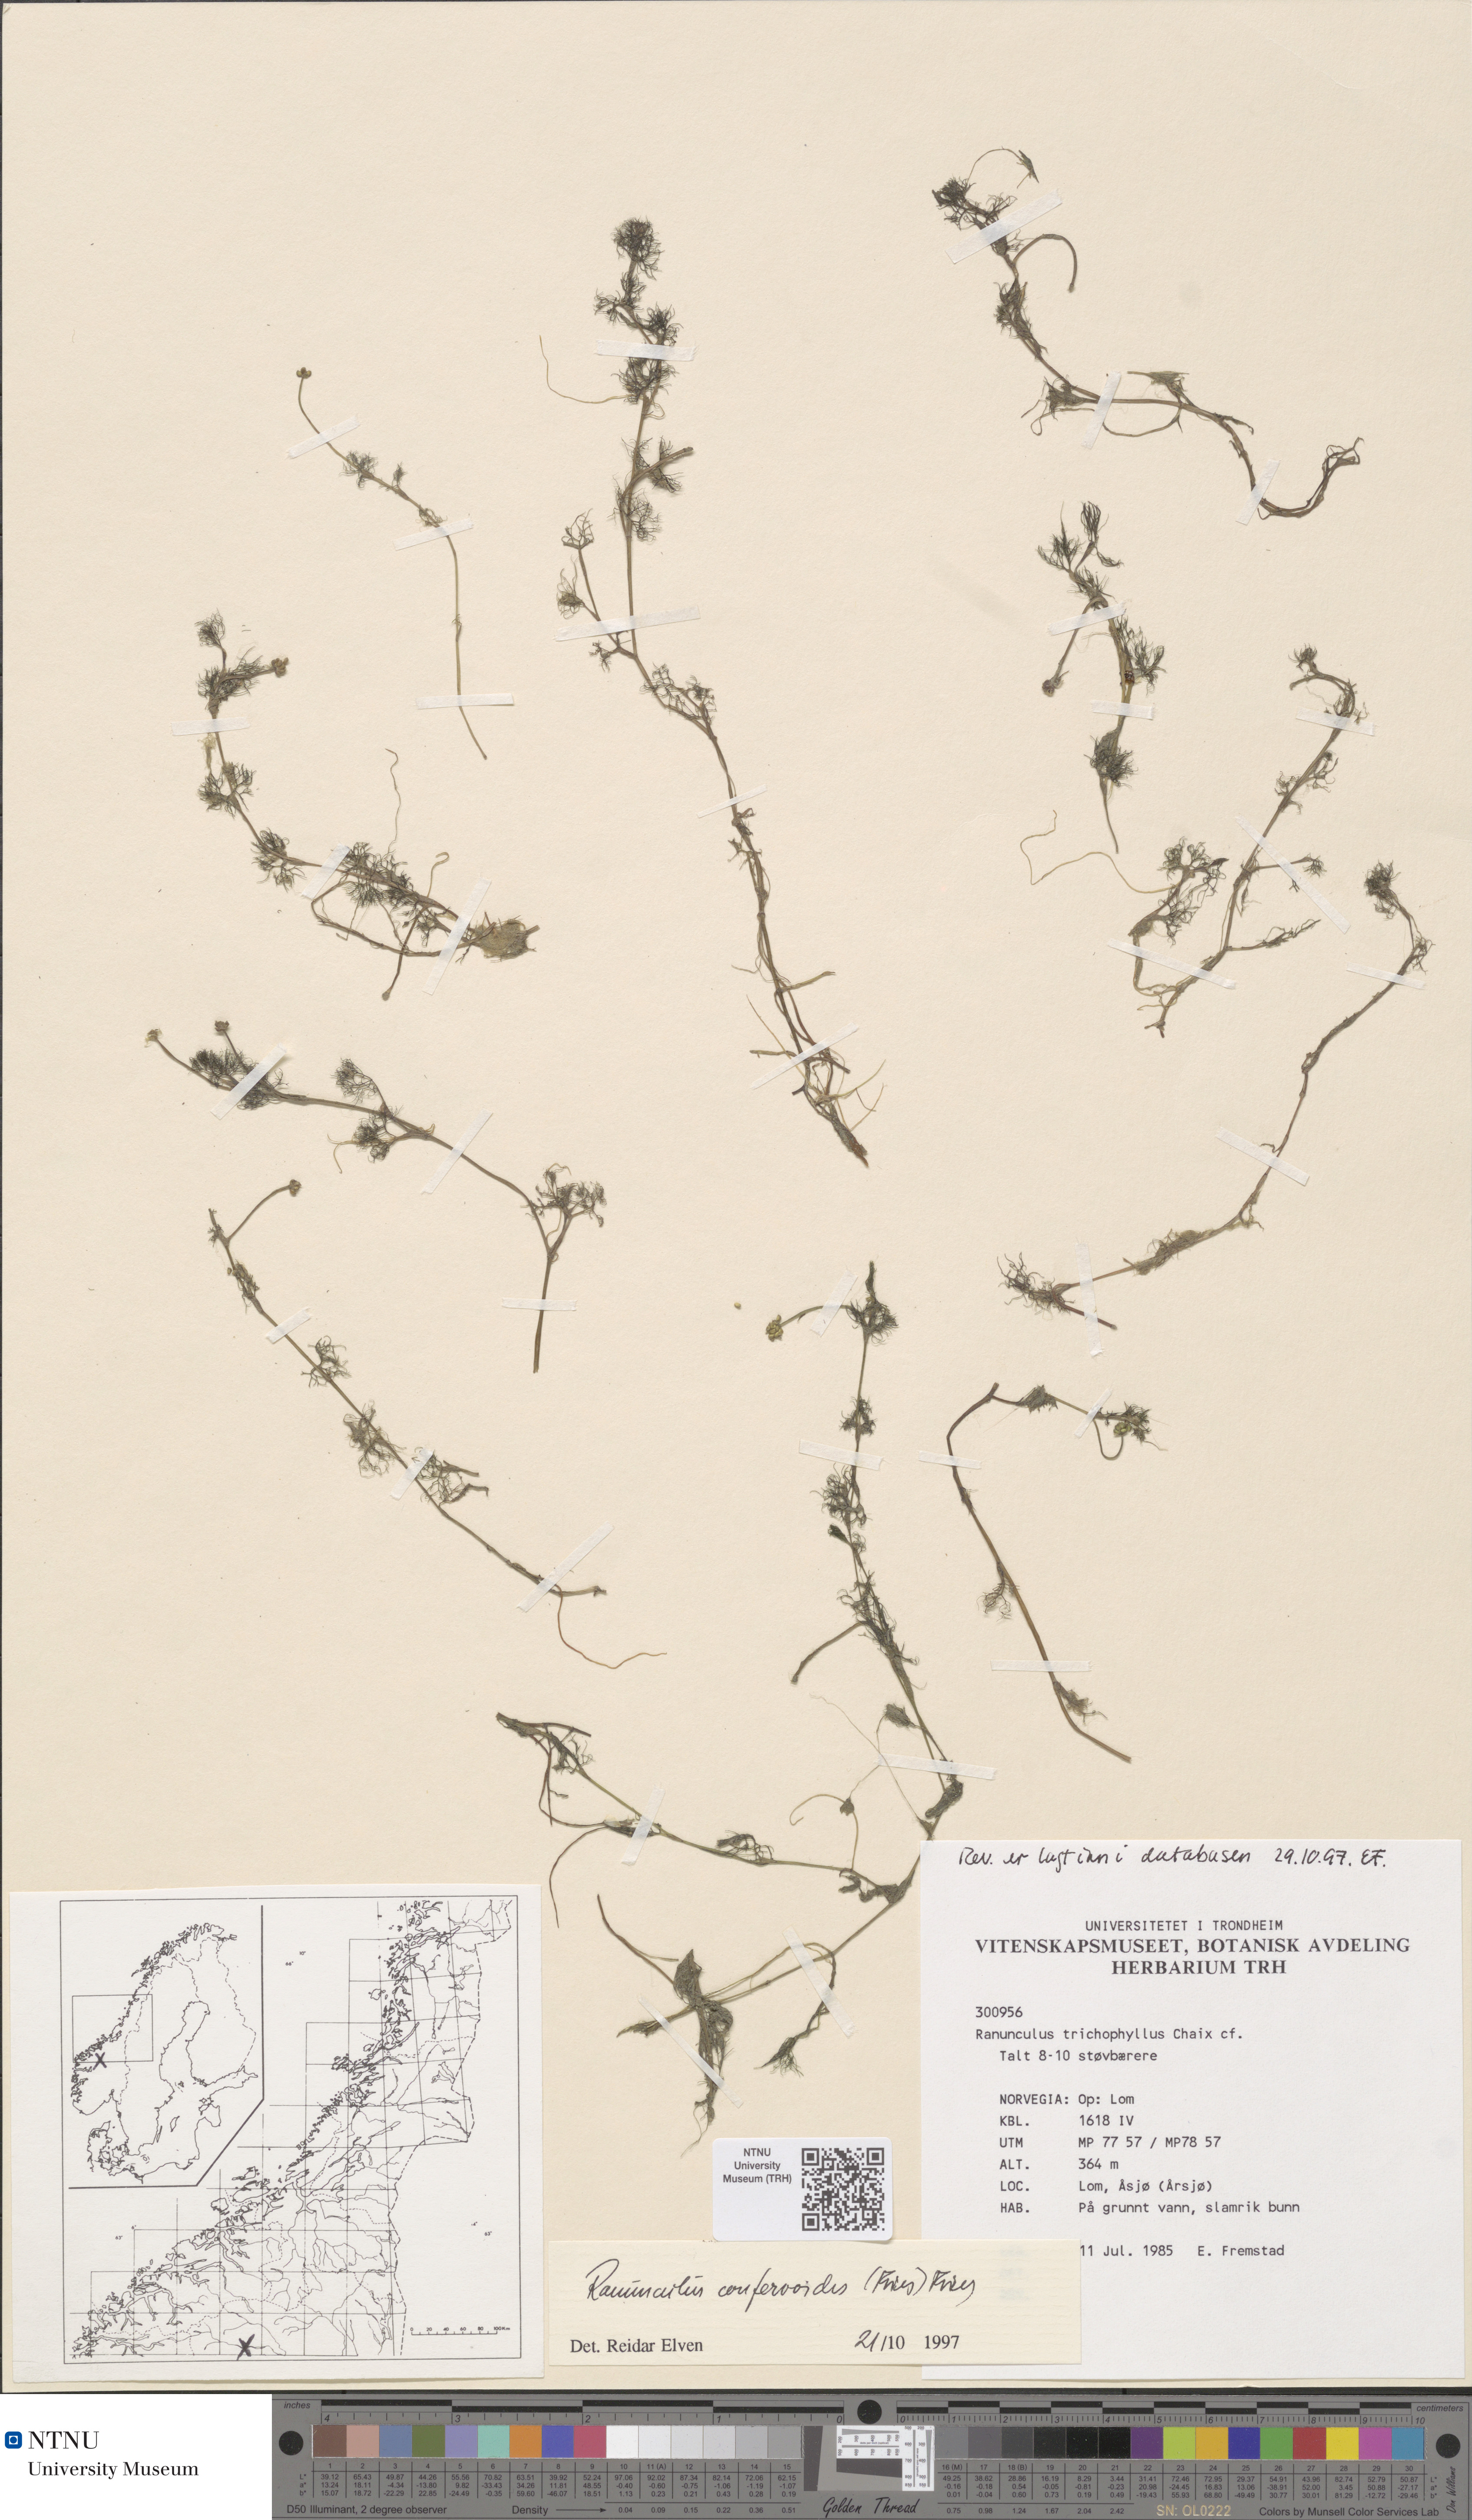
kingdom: Plantae
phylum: Tracheophyta
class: Magnoliopsida
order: Ranunculales
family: Ranunculaceae
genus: Ranunculus
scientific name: Ranunculus confervoides
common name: Delicate buttercup
